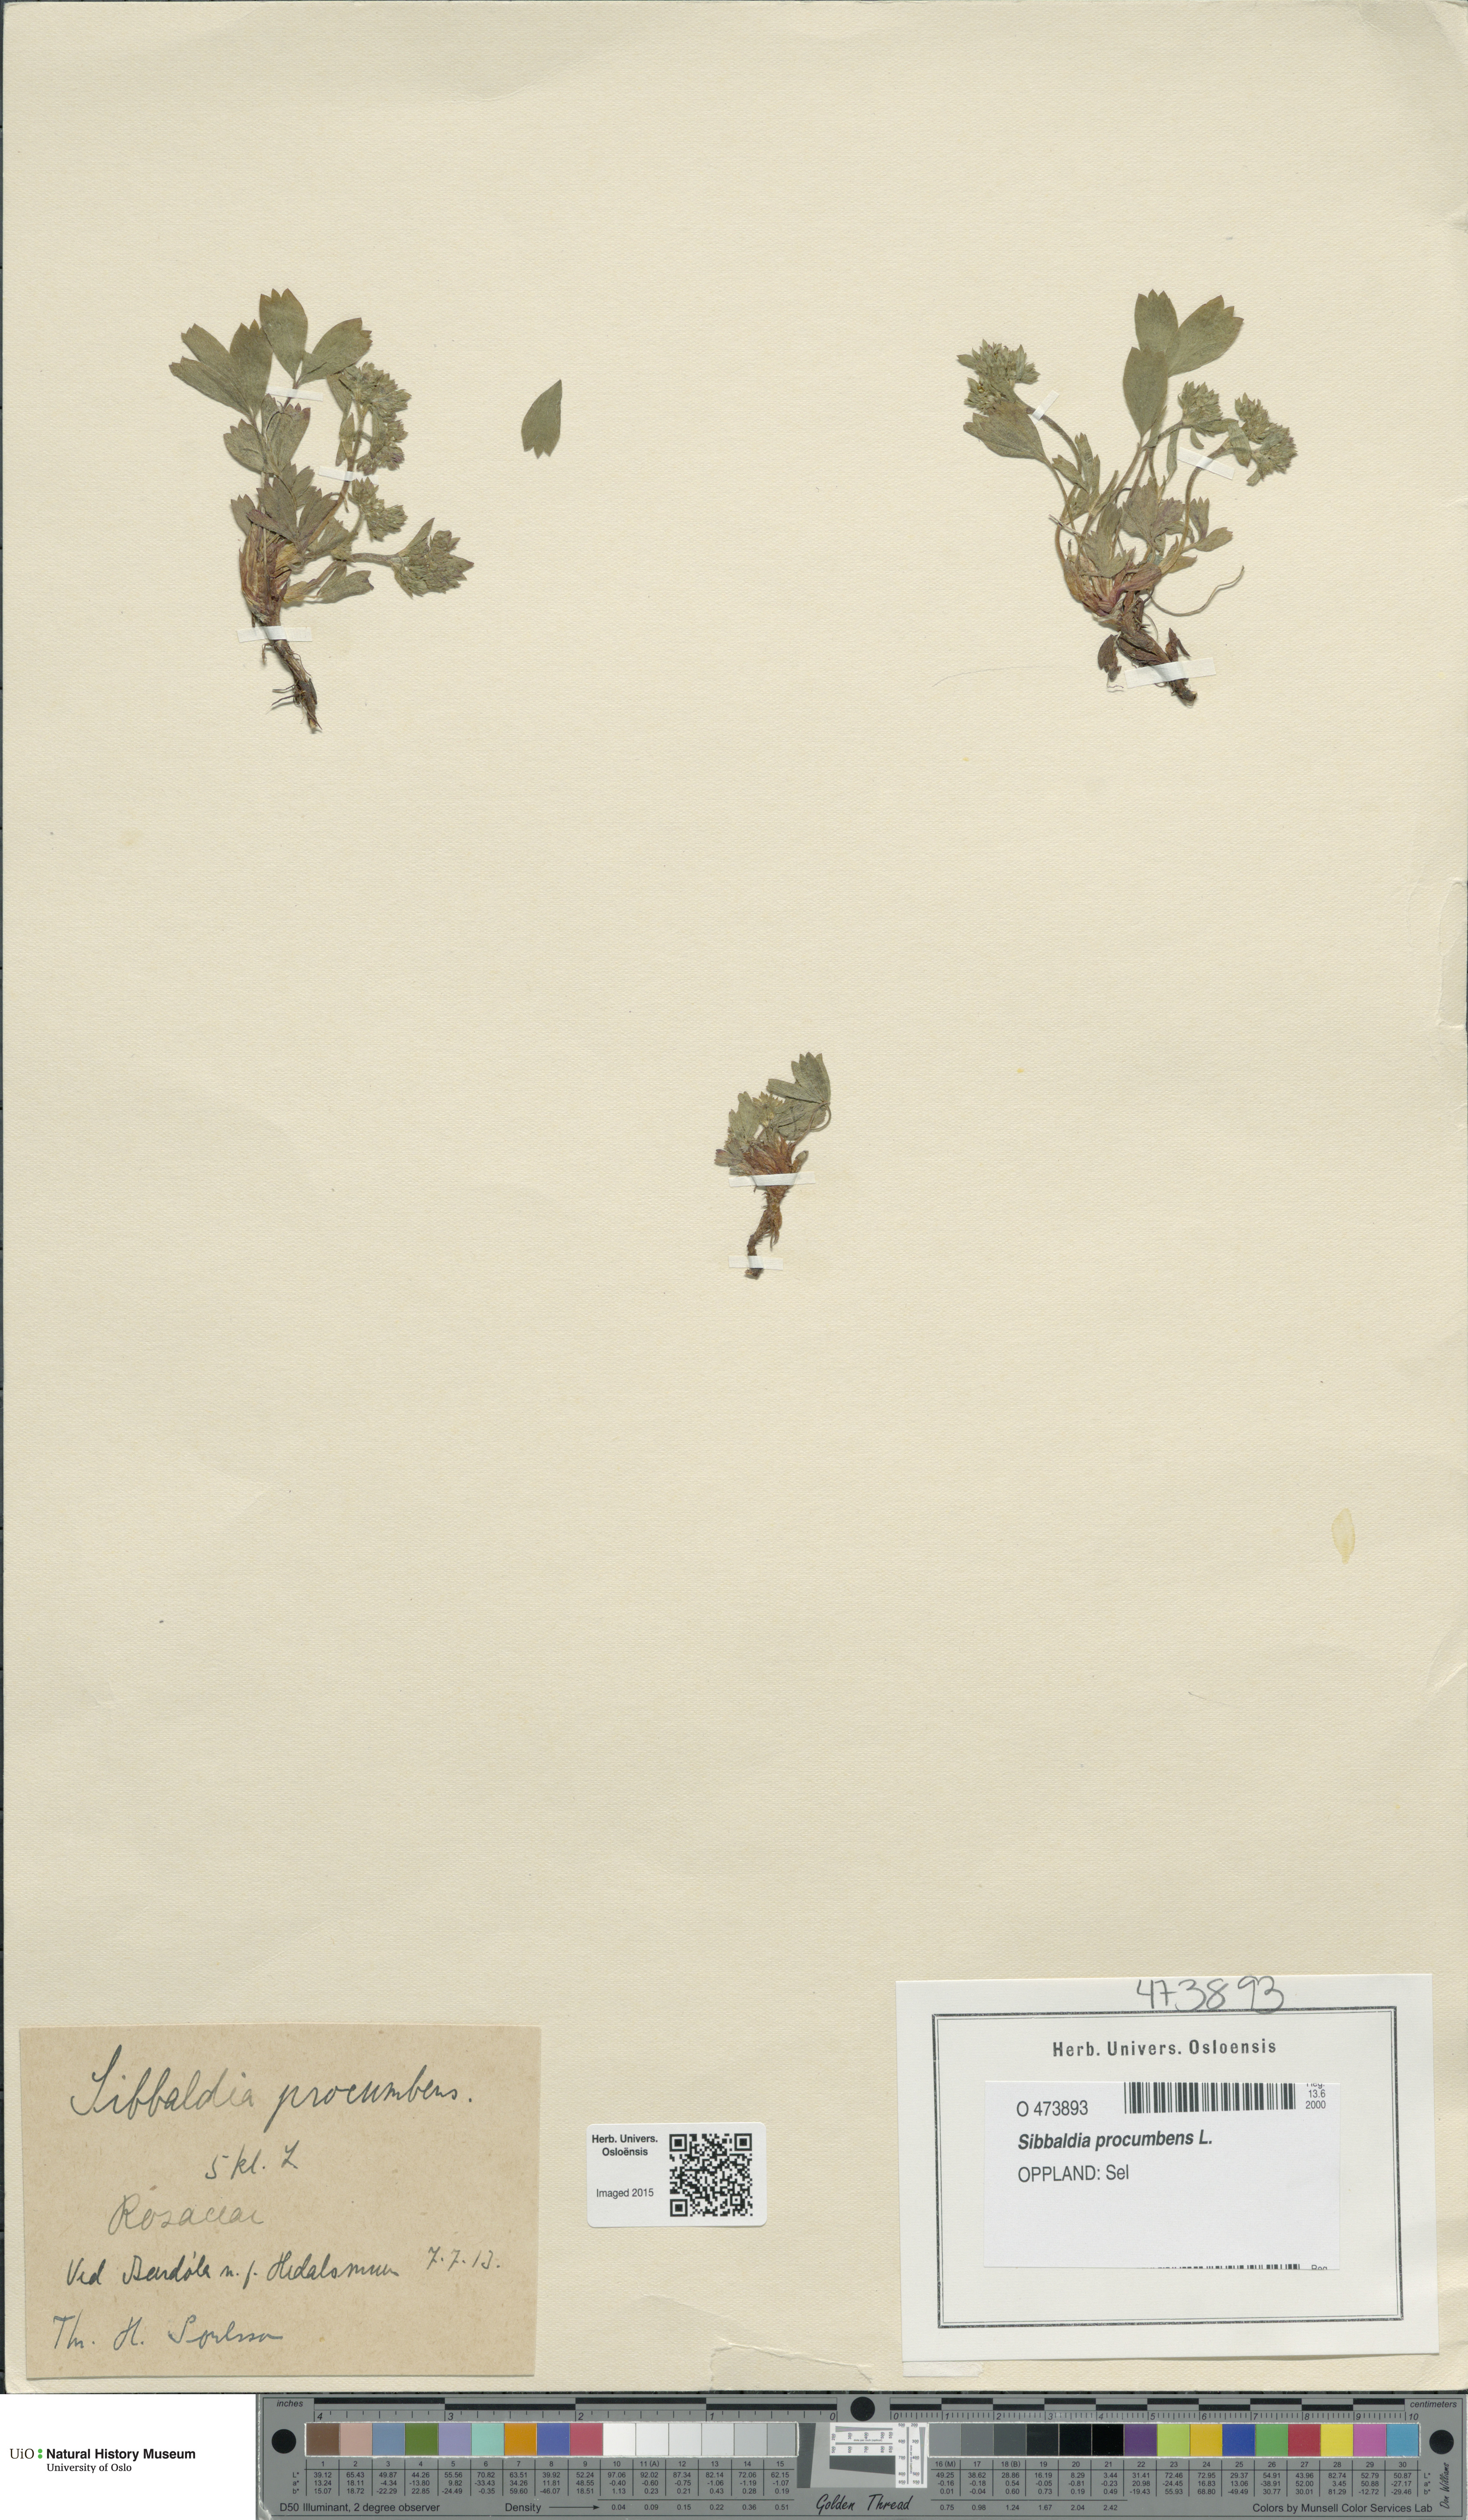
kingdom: Plantae
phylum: Tracheophyta
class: Magnoliopsida
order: Rosales
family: Rosaceae
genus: Sibbaldia
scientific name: Sibbaldia procumbens
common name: Creeping sibbaldia
